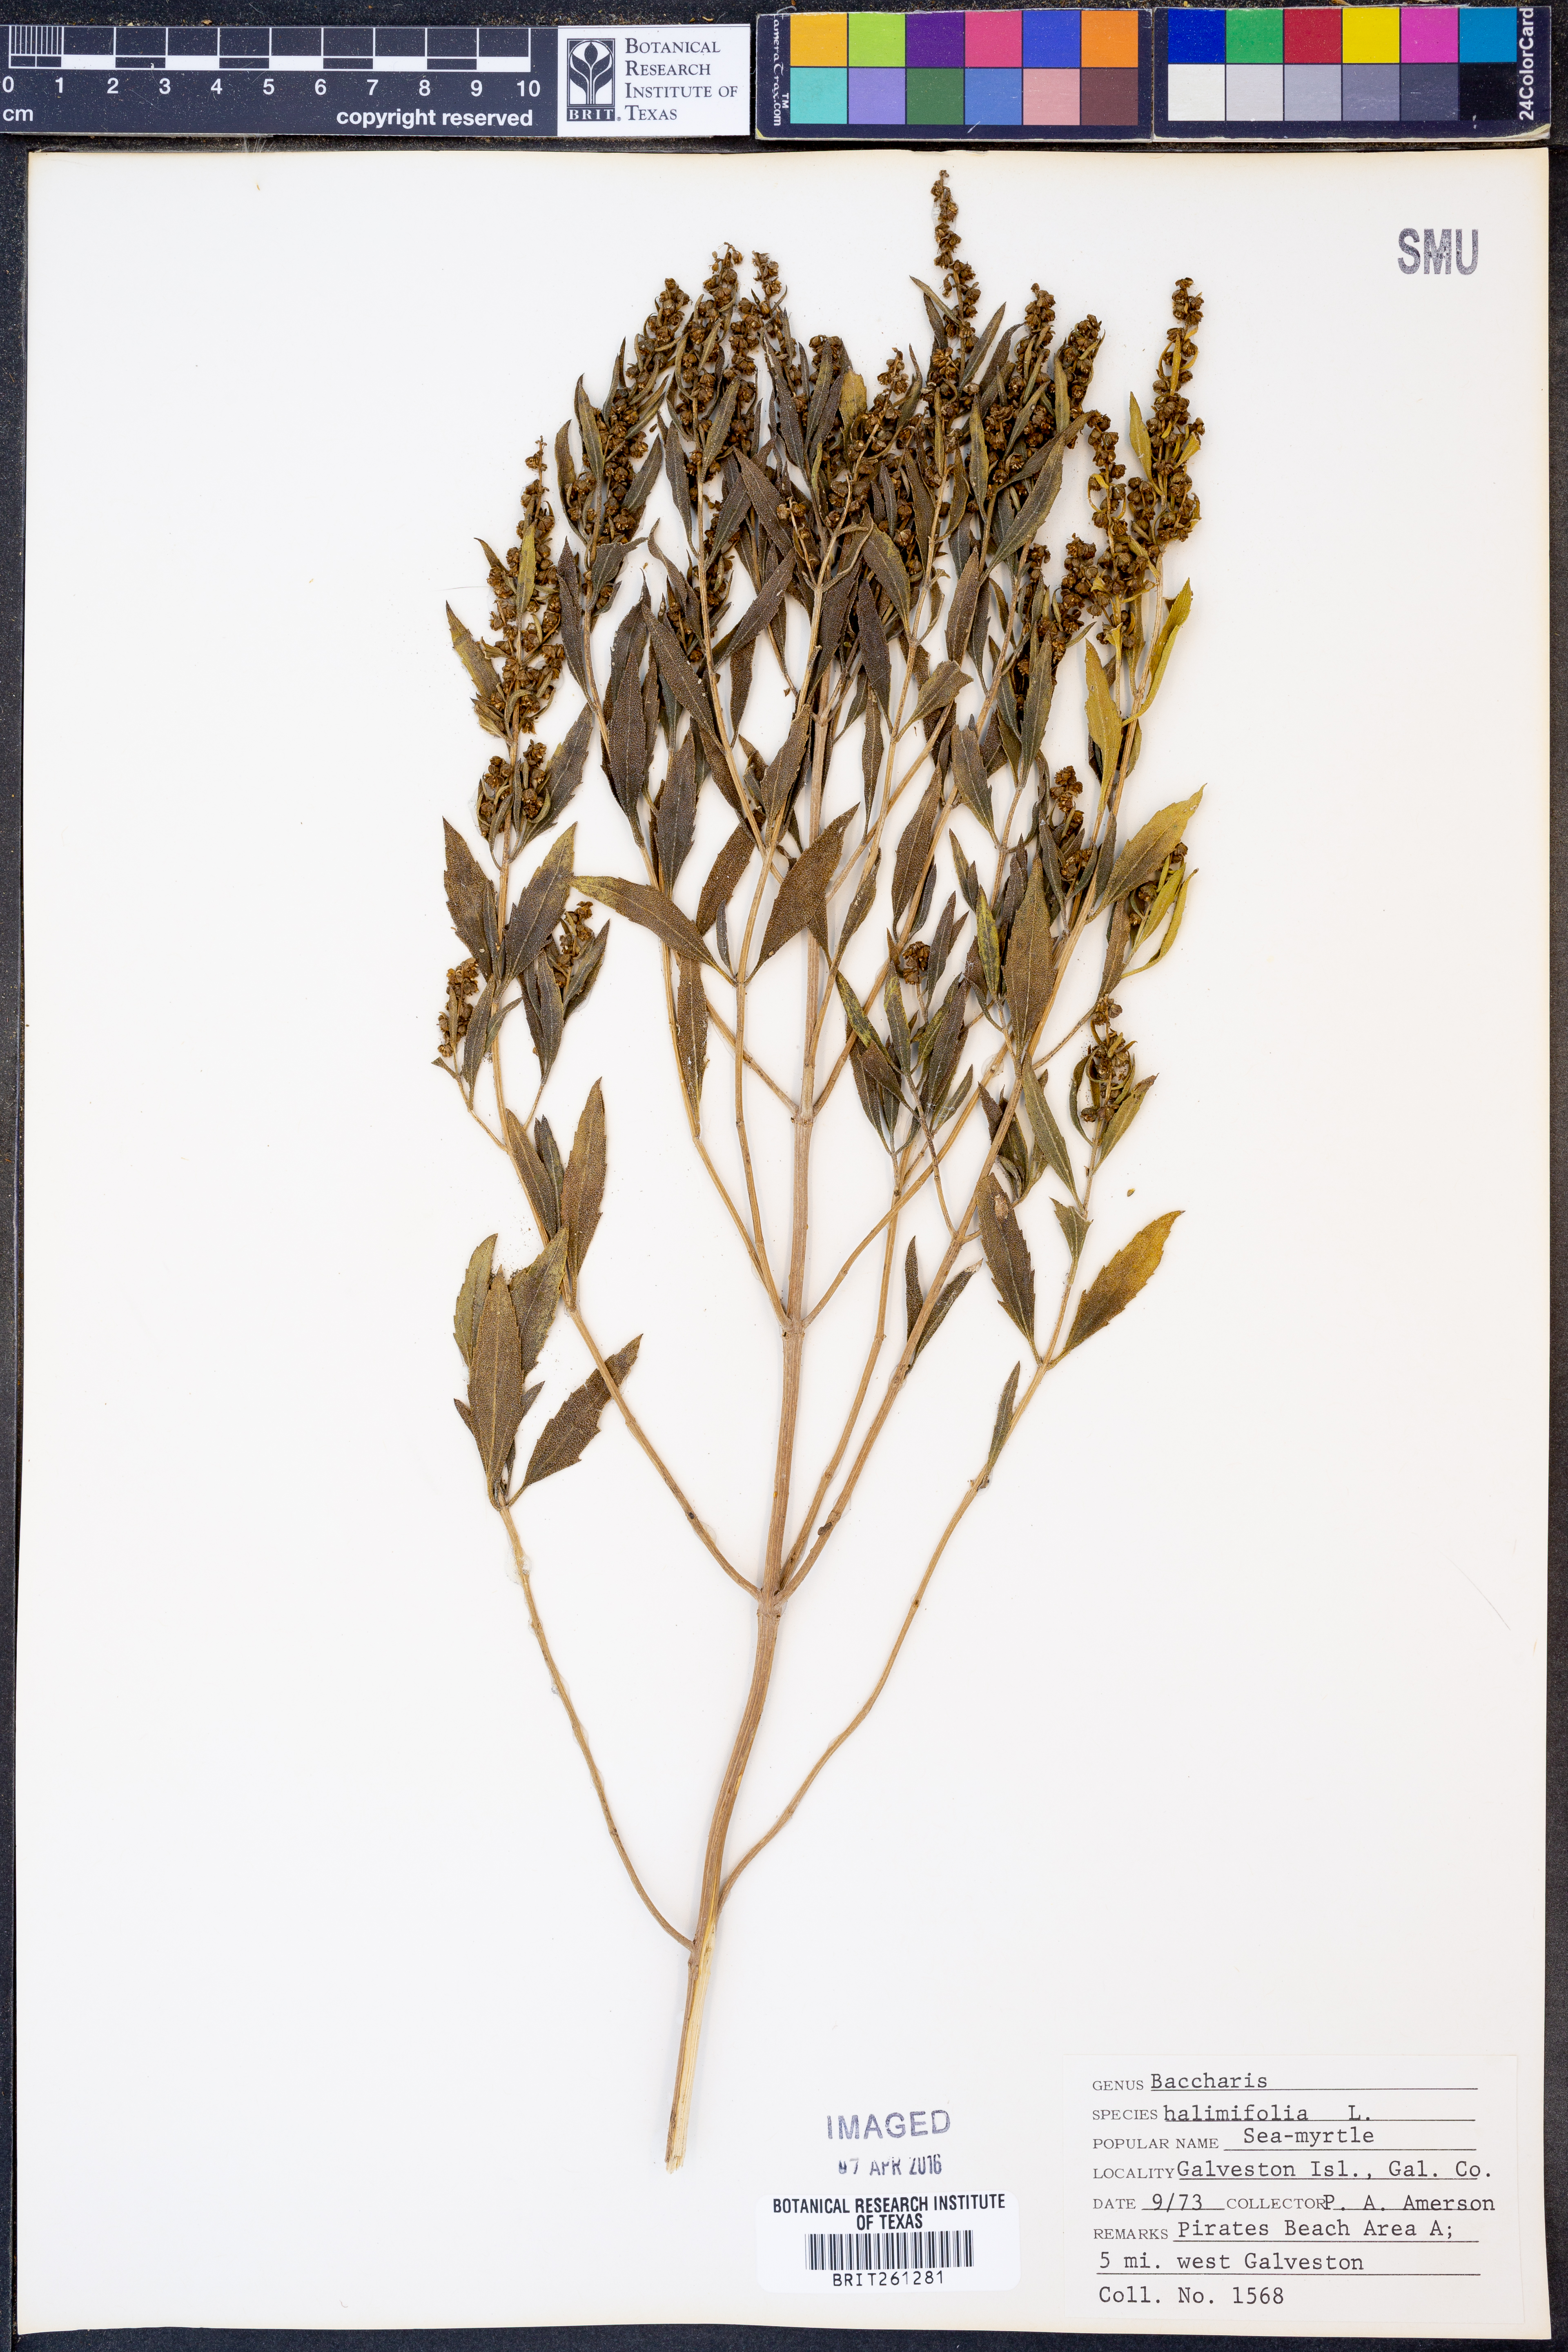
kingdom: Plantae
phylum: Tracheophyta
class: Magnoliopsida
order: Asterales
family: Asteraceae
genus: Nidorella
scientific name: Nidorella ivifolia
